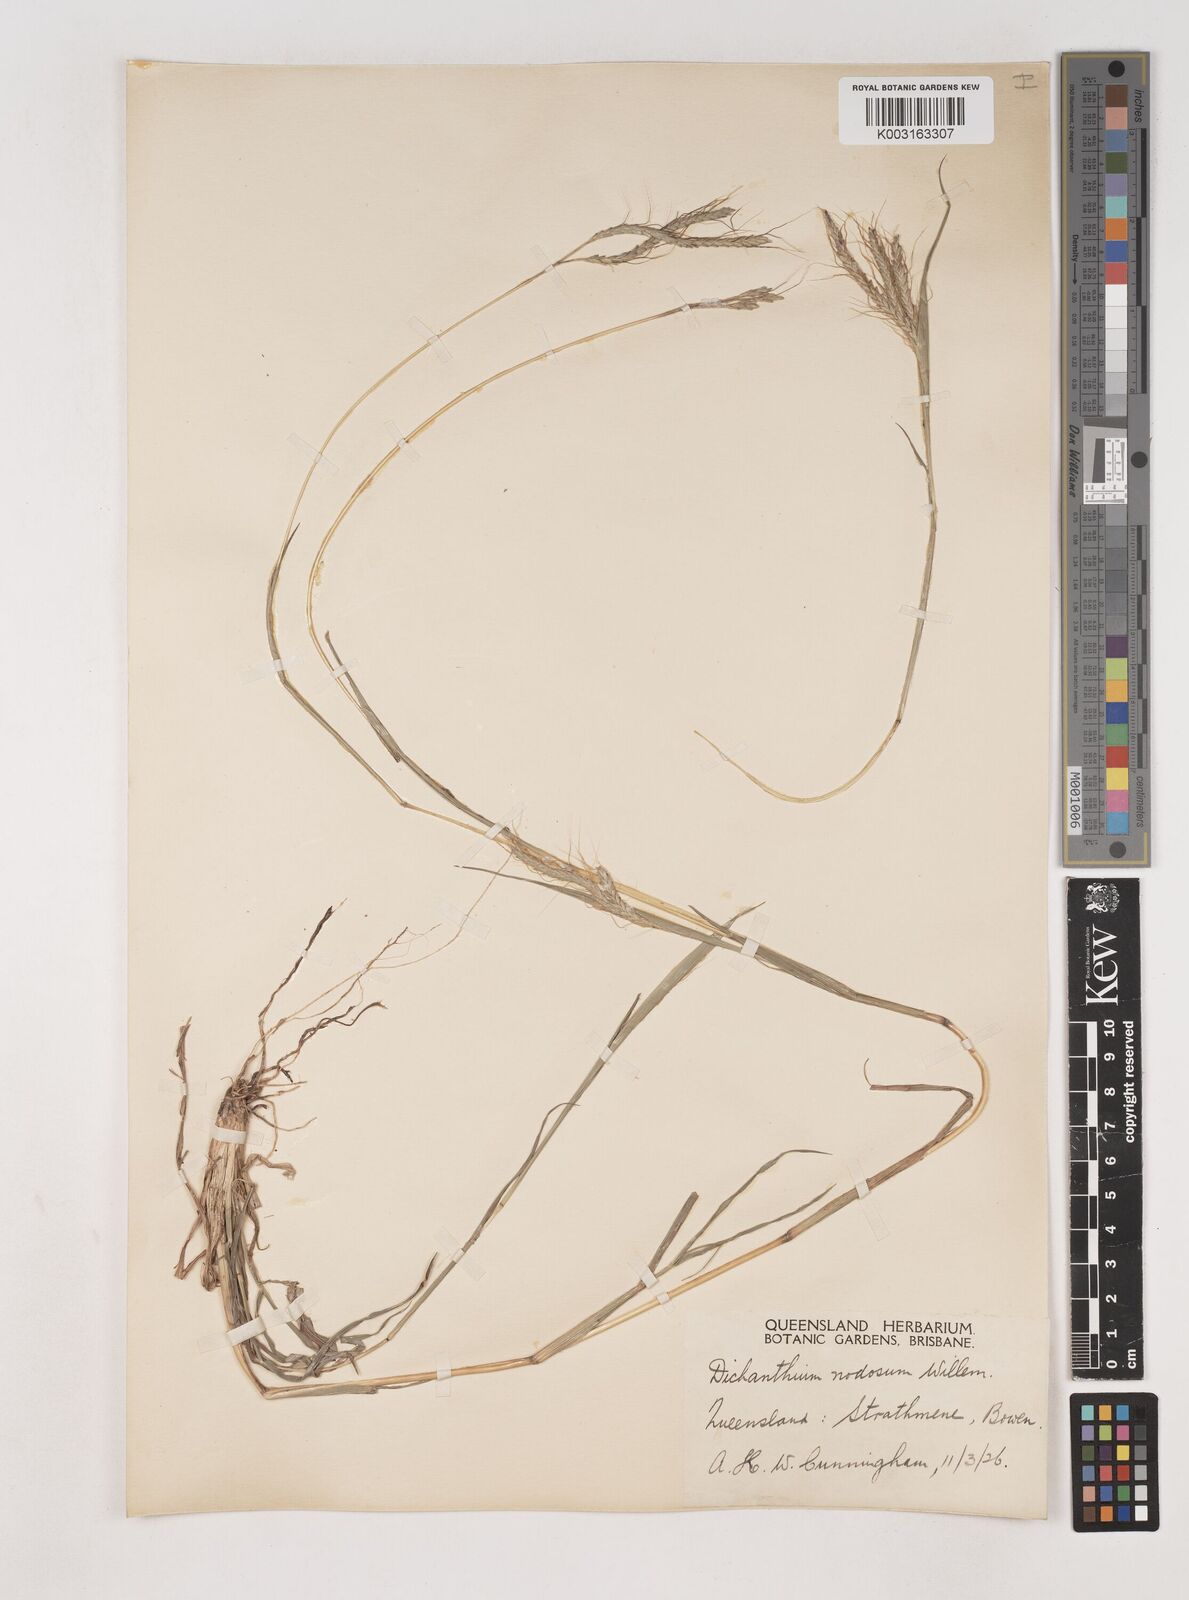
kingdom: Plantae
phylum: Tracheophyta
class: Liliopsida
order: Poales
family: Poaceae
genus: Dichanthium
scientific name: Dichanthium aristatum
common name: Angleton bluestem
